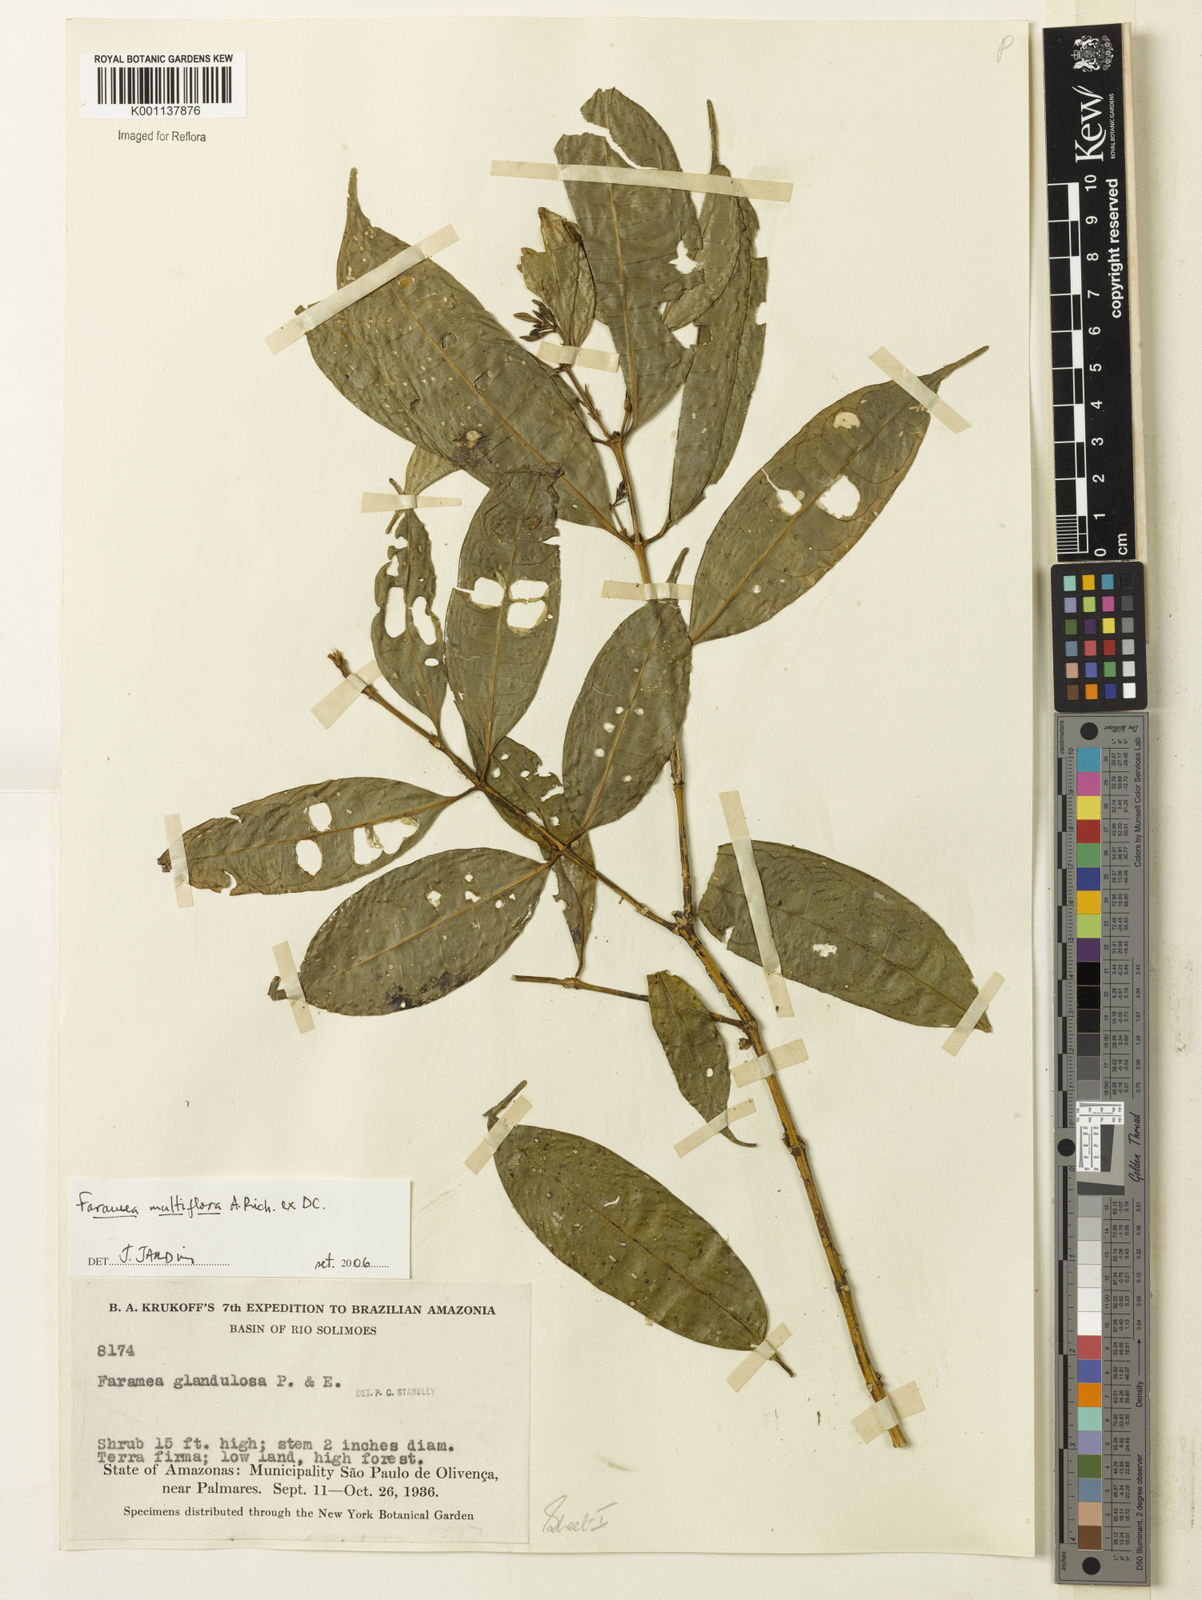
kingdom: Plantae
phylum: Tracheophyta
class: Magnoliopsida
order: Gentianales
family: Rubiaceae
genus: Faramea
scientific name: Faramea multiflora
